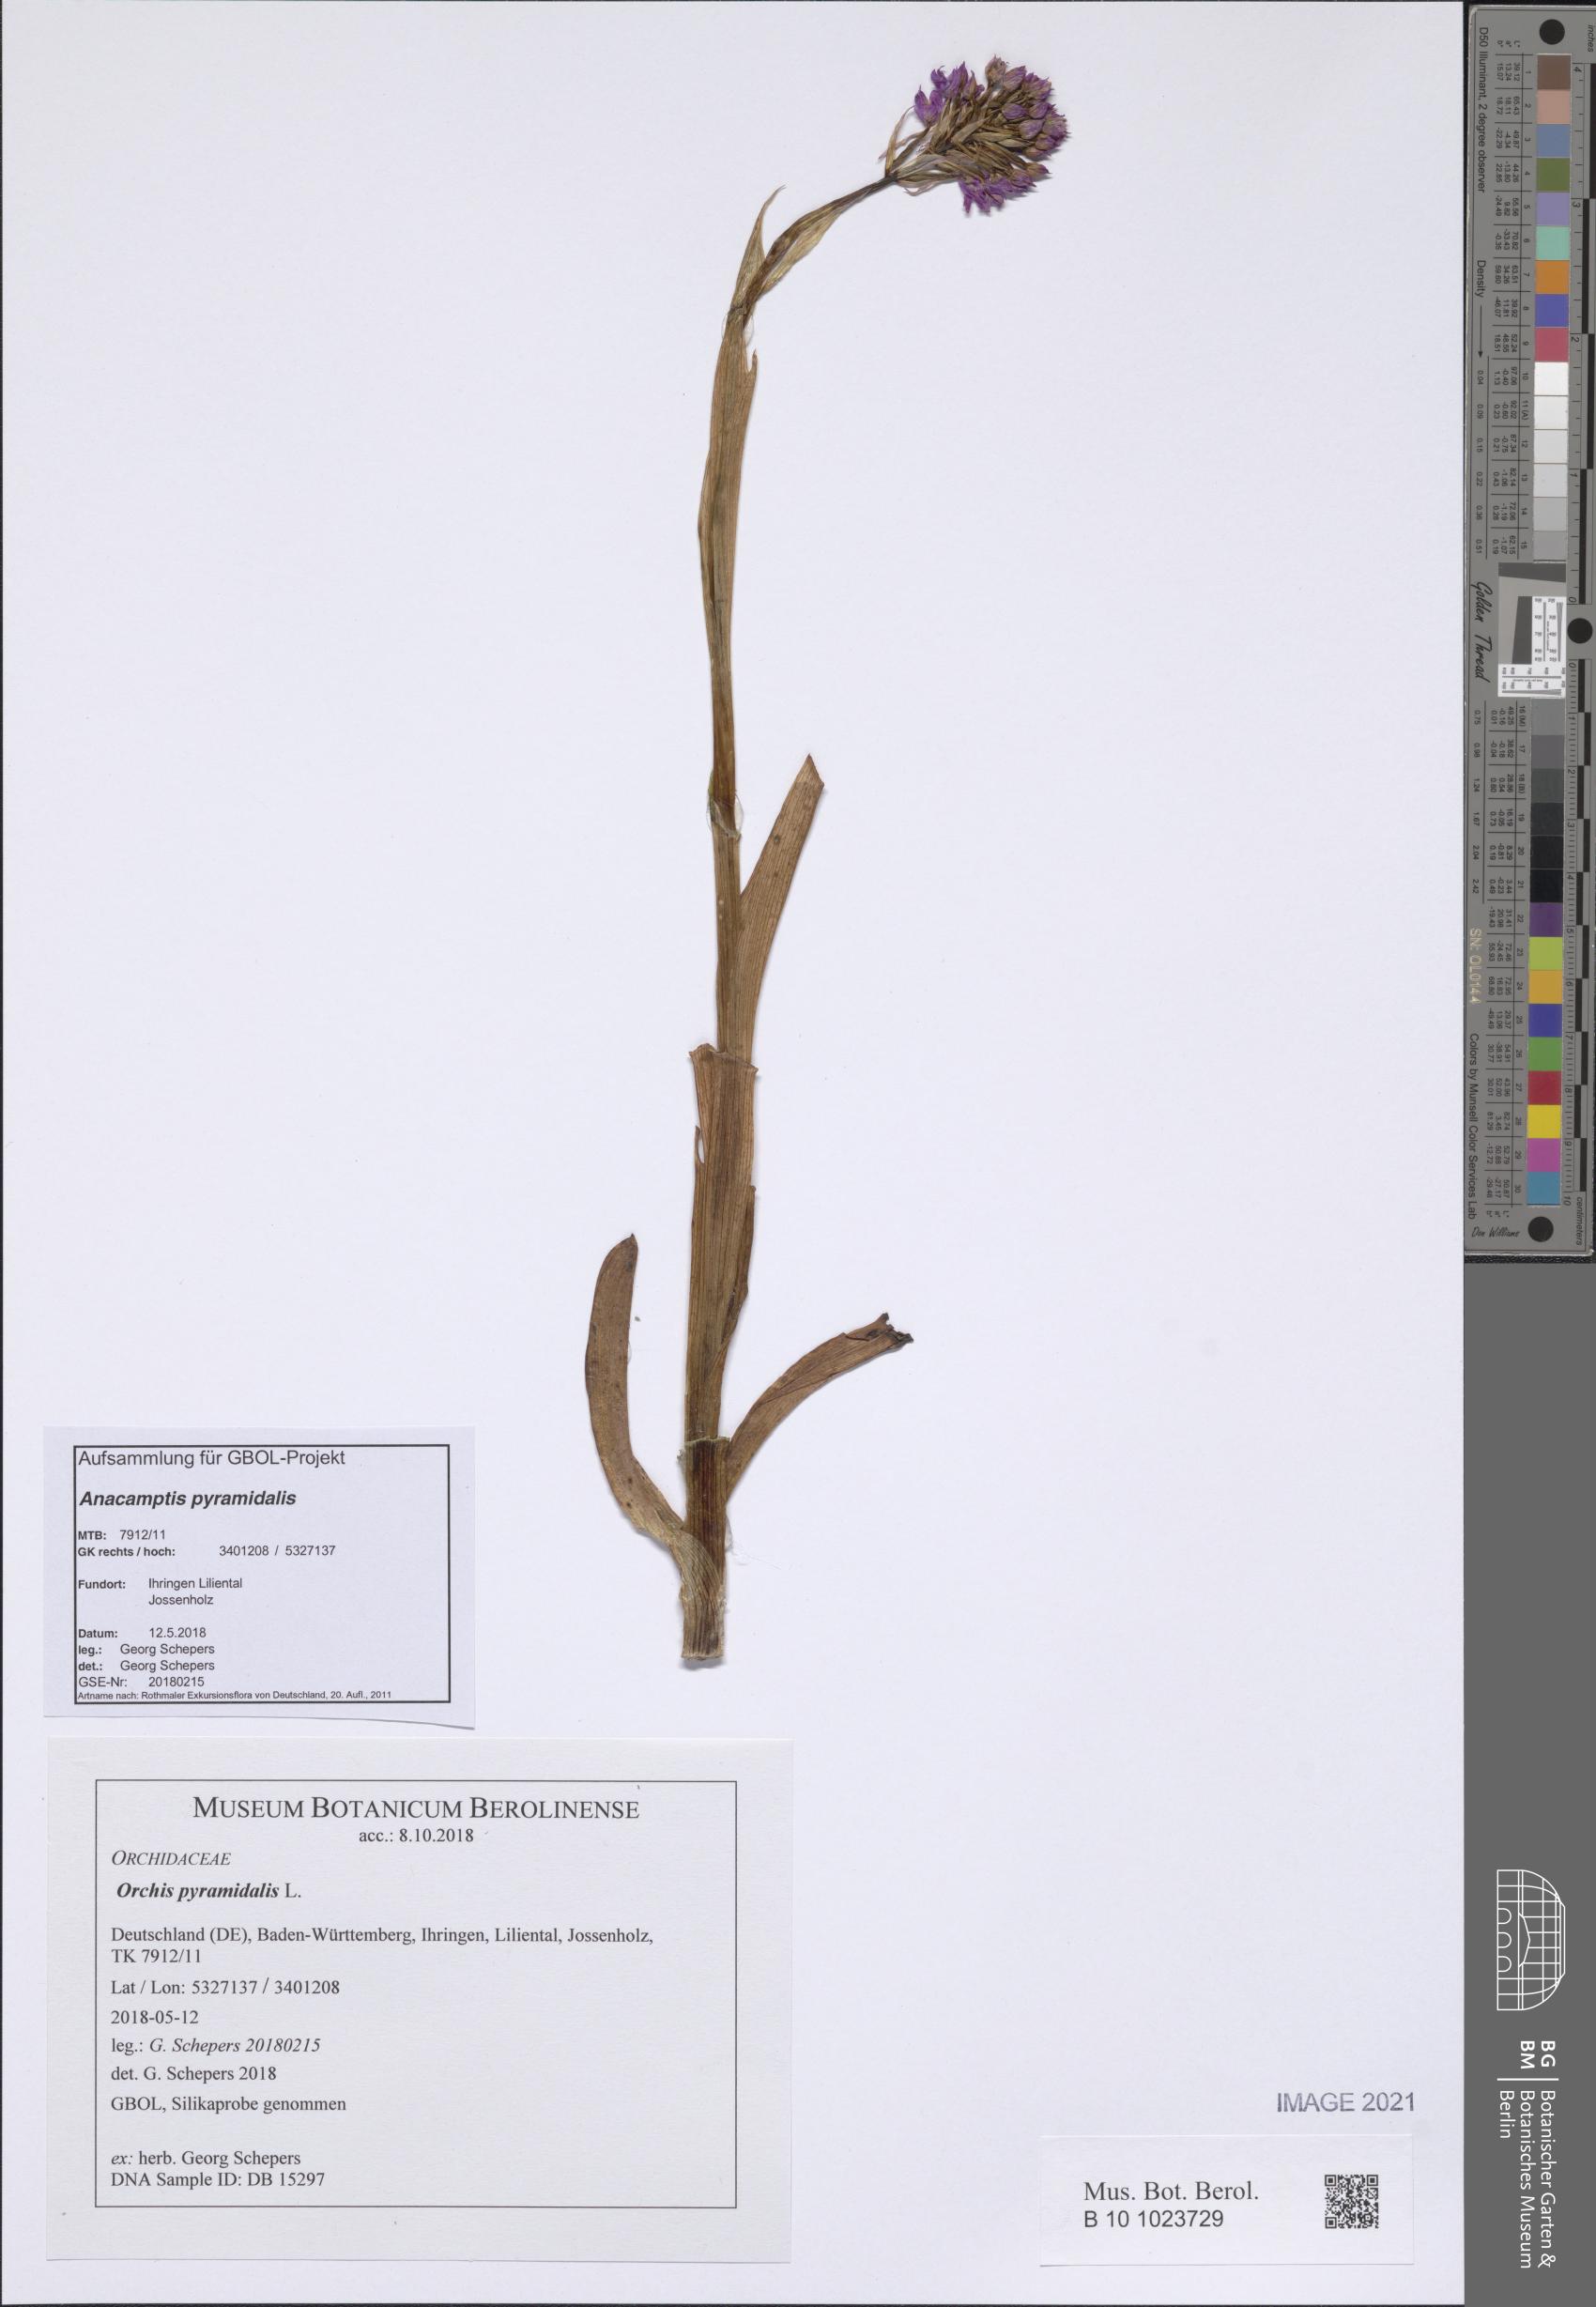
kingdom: Plantae
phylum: Tracheophyta
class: Liliopsida
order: Asparagales
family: Orchidaceae
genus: Anacamptis
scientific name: Anacamptis pyramidalis
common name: Pyramidal orchid
